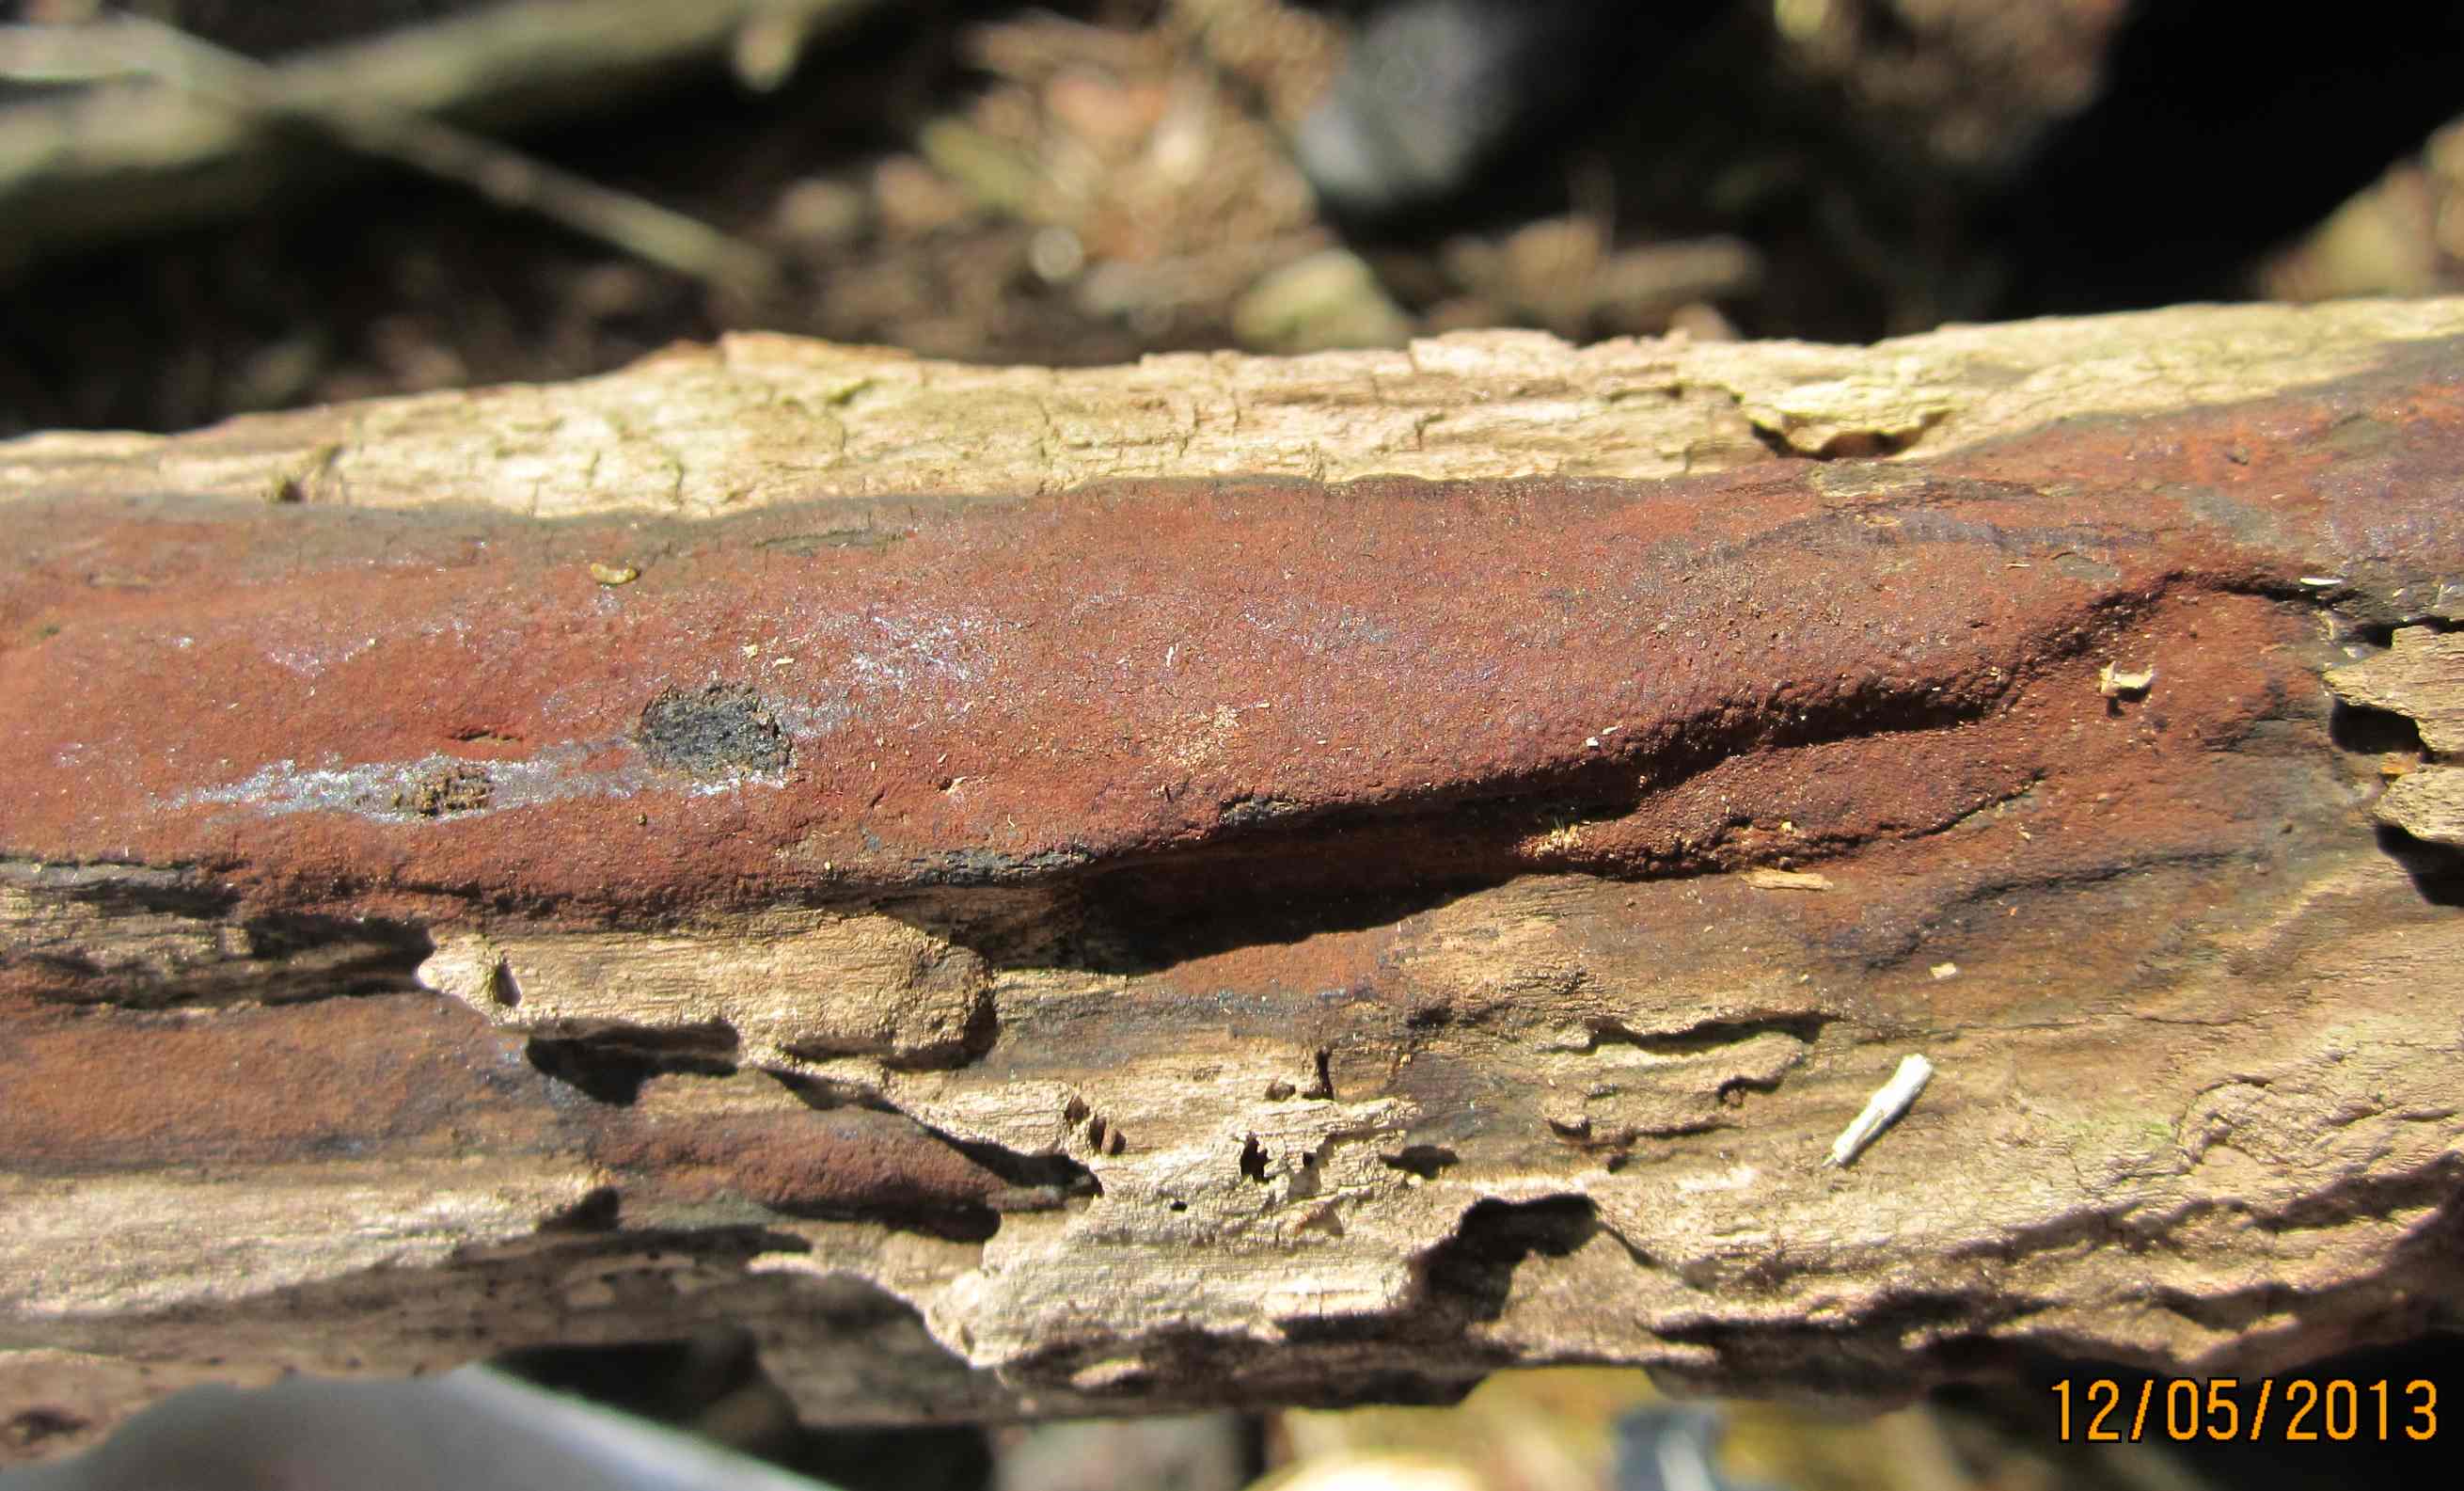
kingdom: Fungi
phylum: Ascomycota
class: Sordariomycetes
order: Xylariales
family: Hypoxylaceae
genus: Hypoxylon
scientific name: Hypoxylon macrocarpum
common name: skorpe-kulbær
